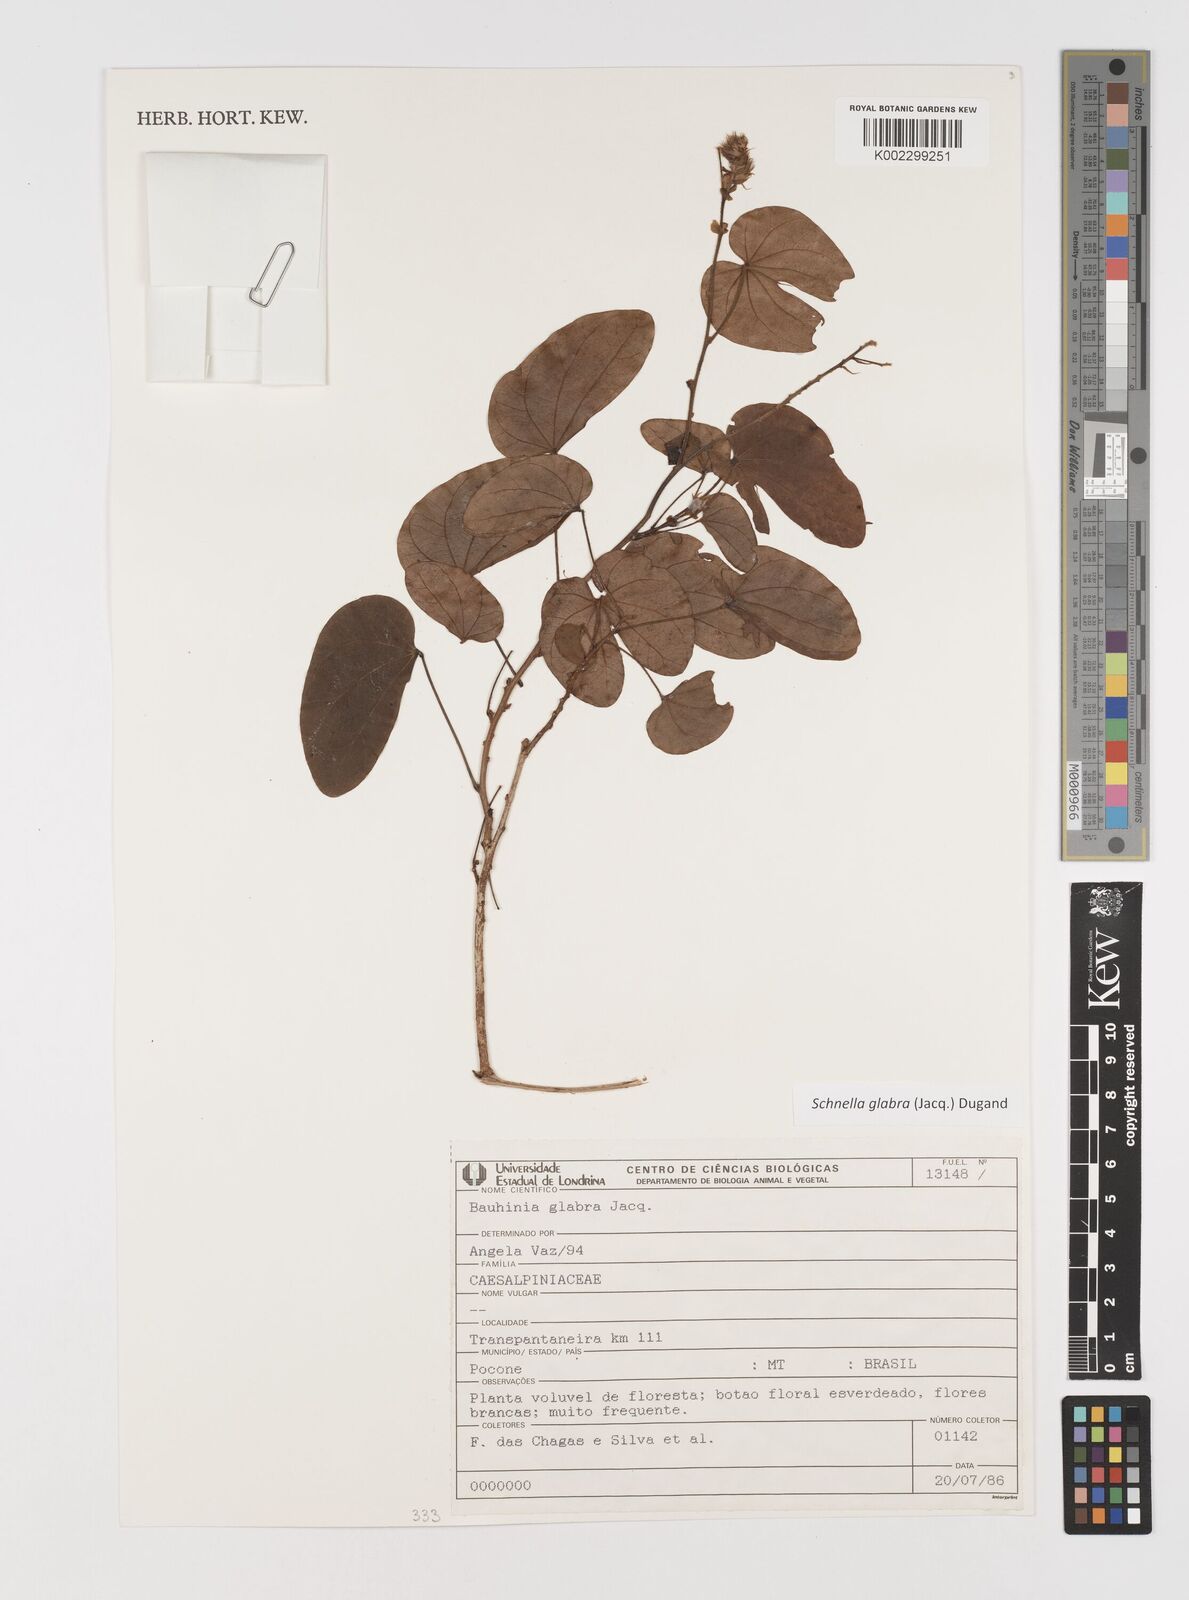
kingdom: Plantae
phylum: Tracheophyta
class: Magnoliopsida
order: Fabales
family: Fabaceae
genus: Schnella
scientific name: Schnella glabra
